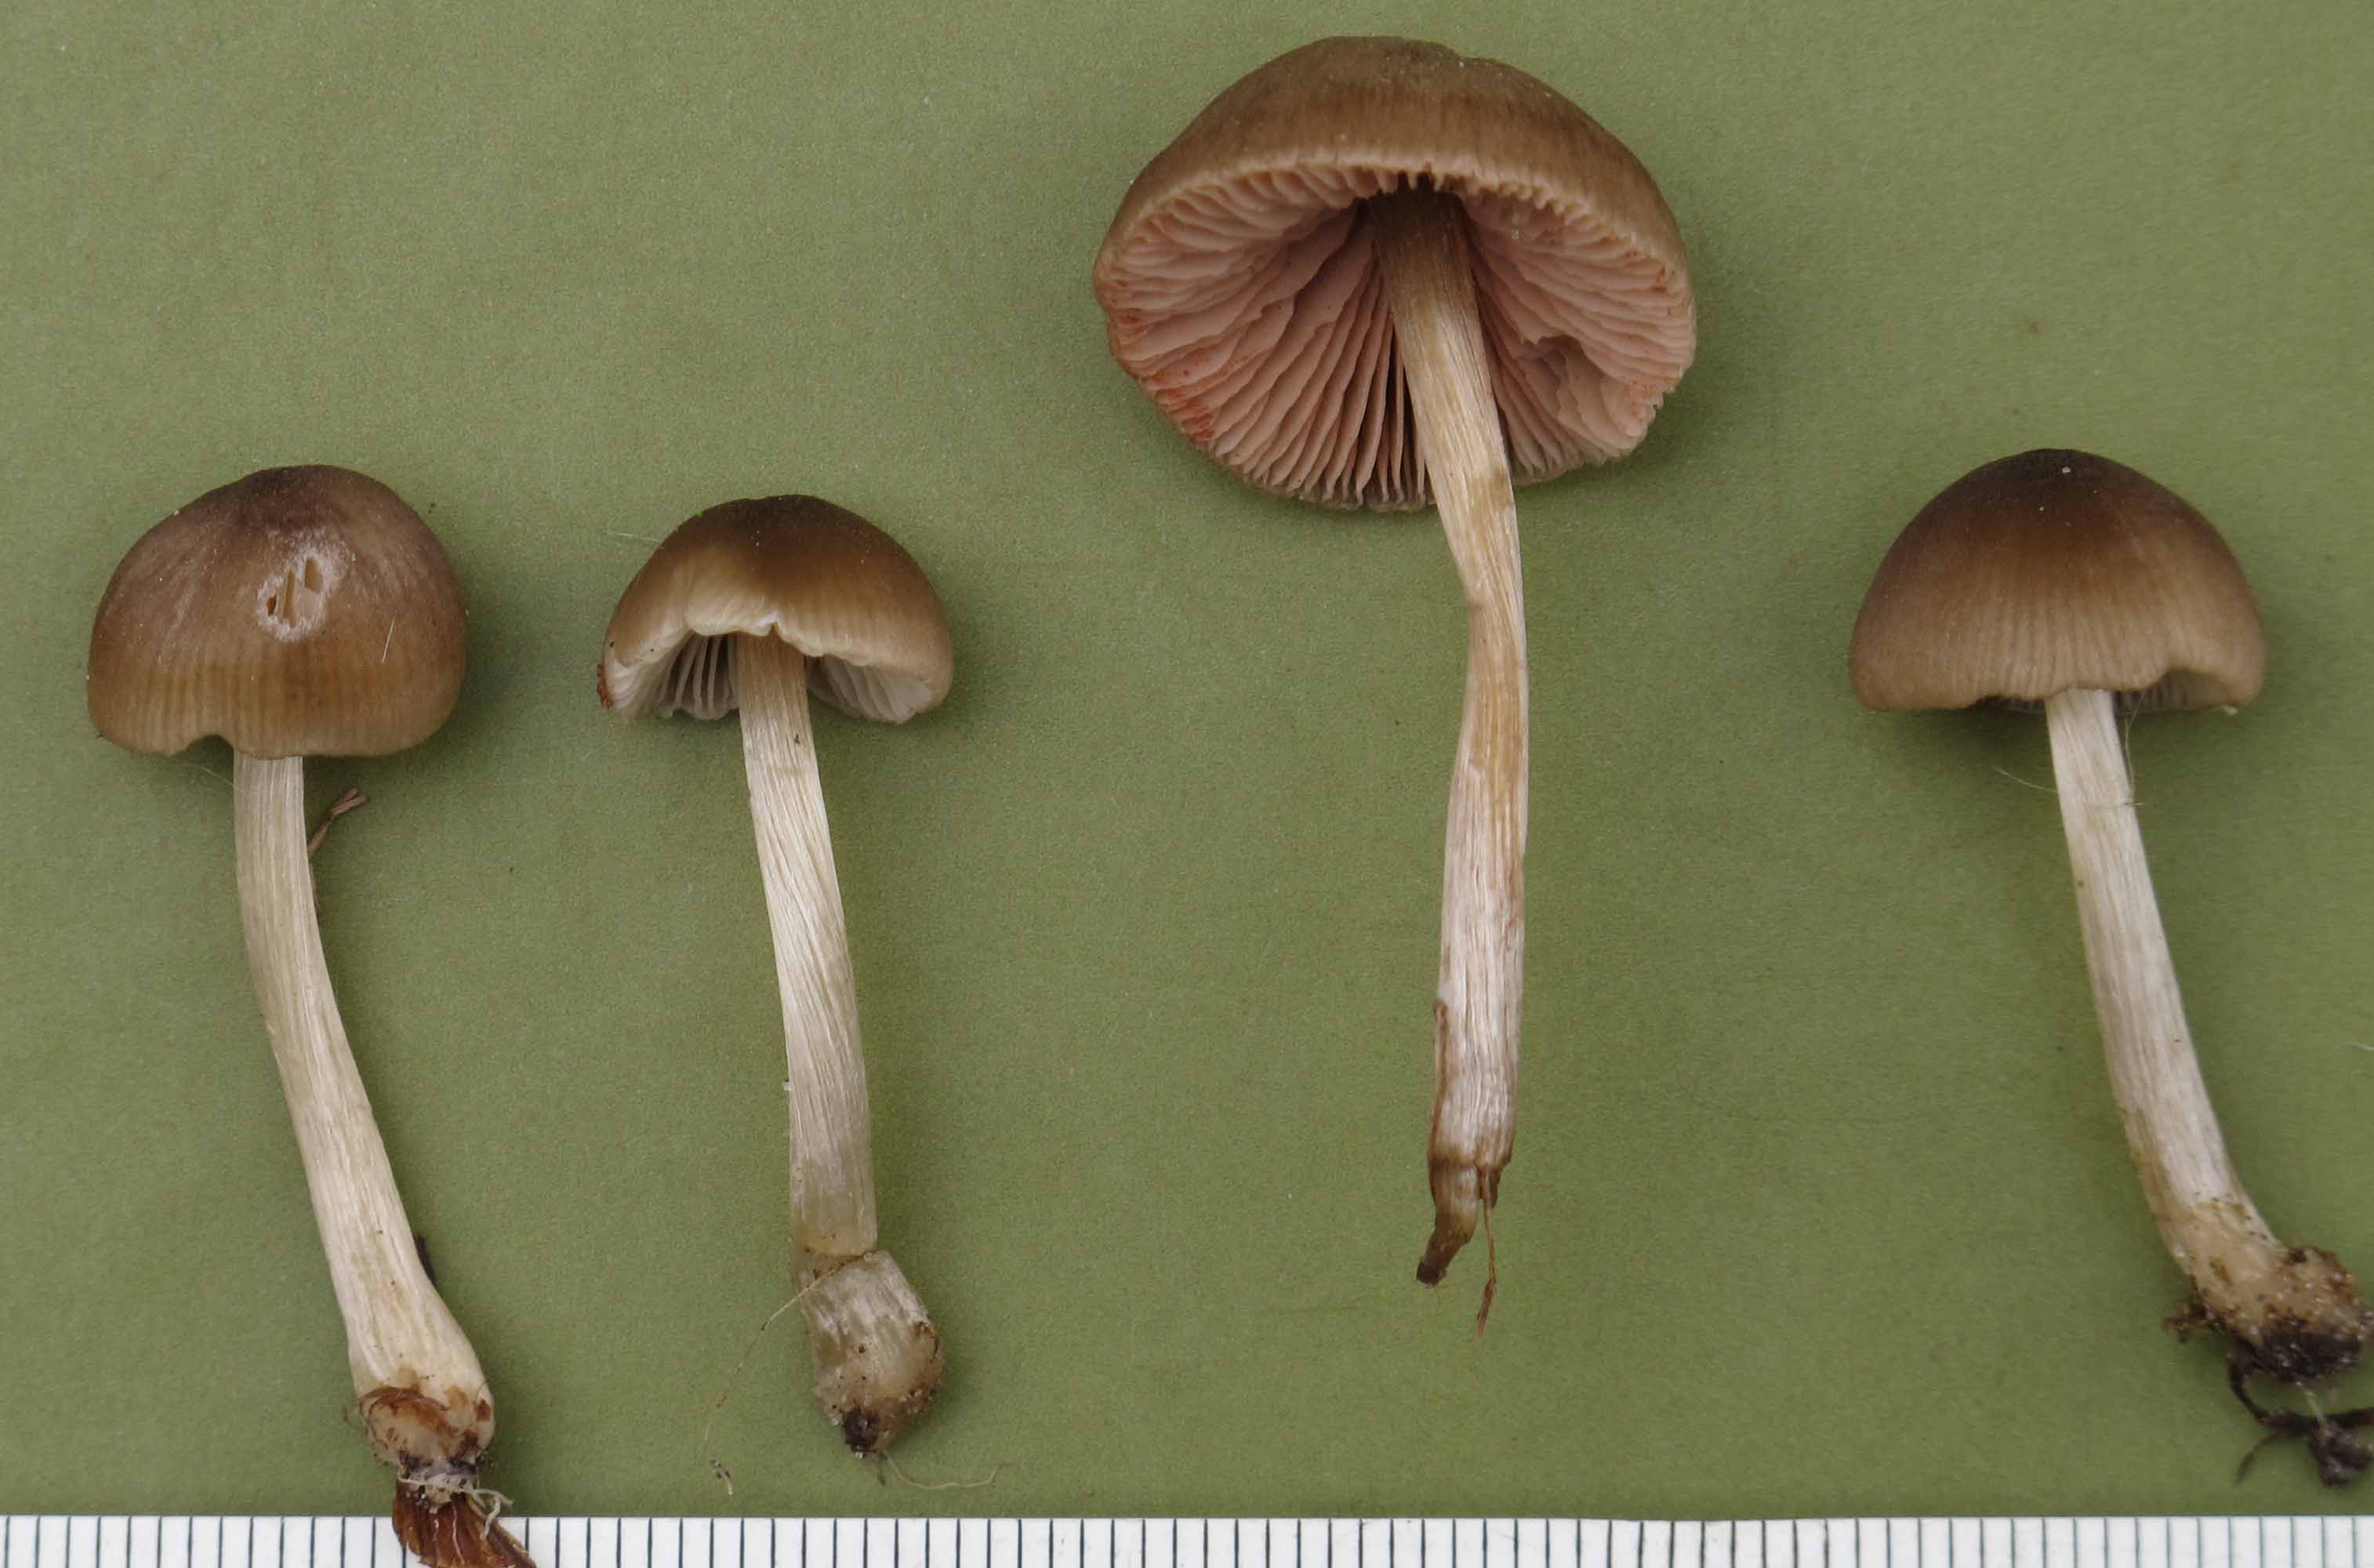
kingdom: Fungi
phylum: Basidiomycota
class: Agaricomycetes
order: Agaricales
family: Entolomataceae
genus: Entoloma
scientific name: Entoloma conferendum
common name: stjernesporet rødblad
